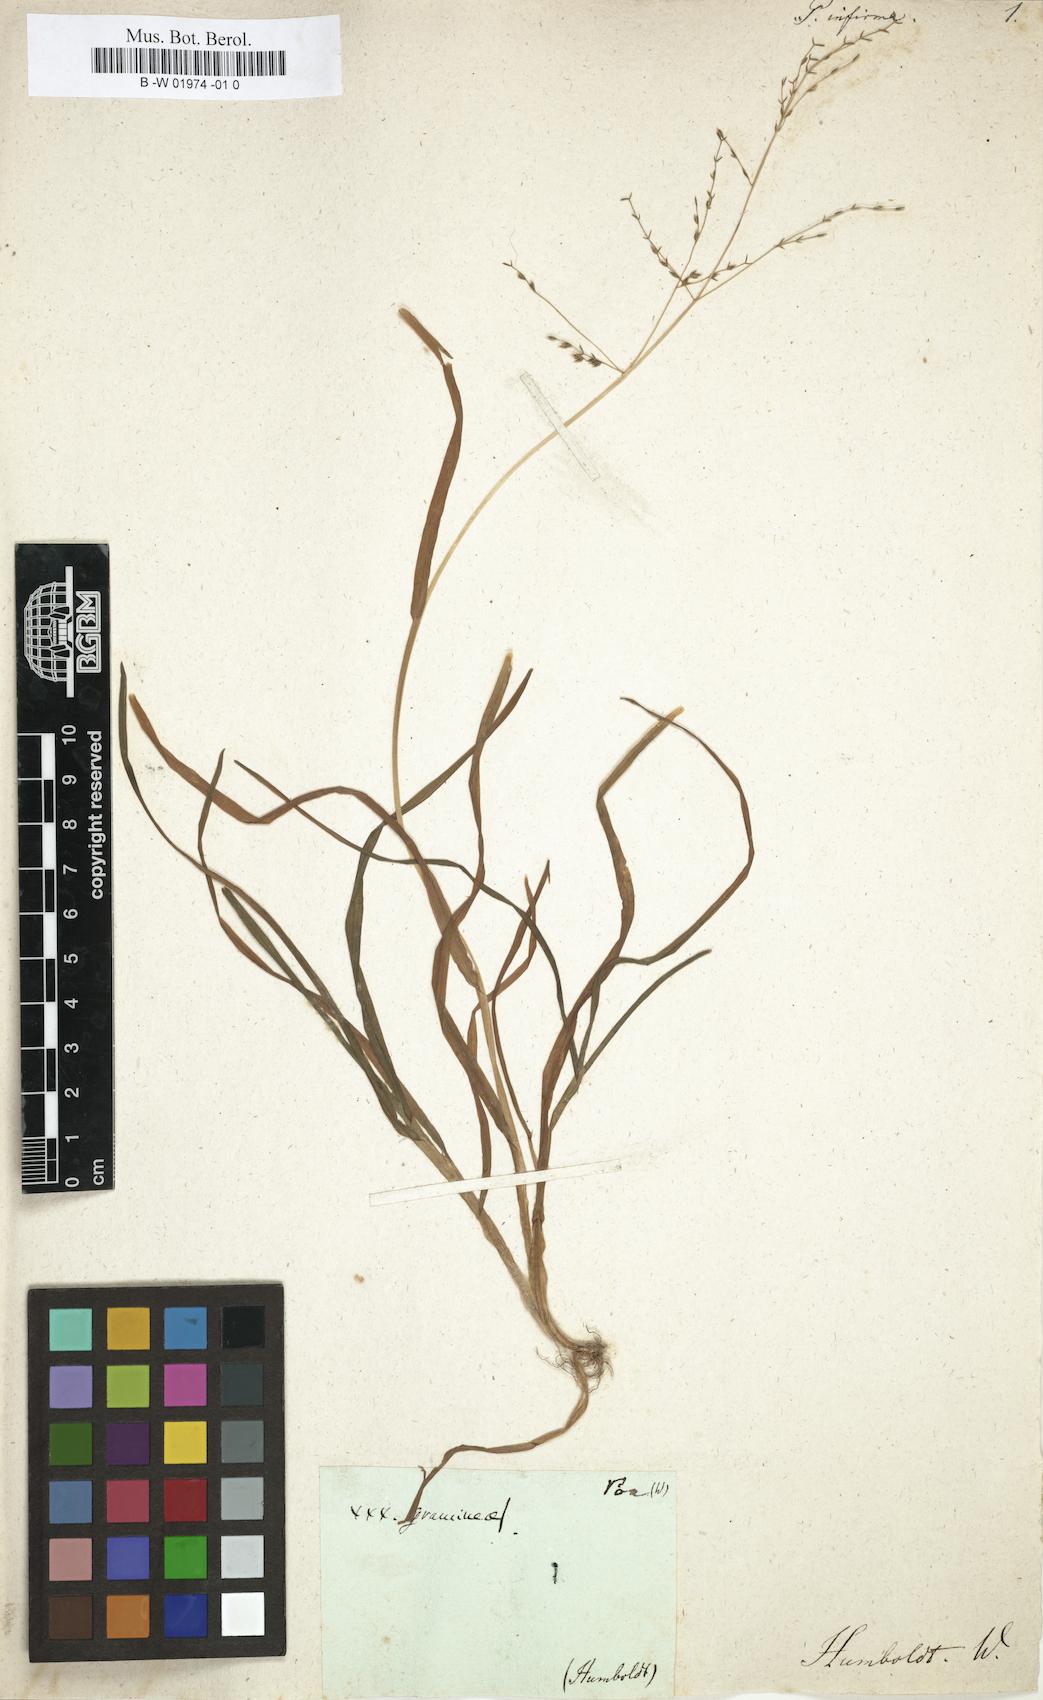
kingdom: Plantae
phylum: Tracheophyta
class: Liliopsida
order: Poales
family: Poaceae
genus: Poa
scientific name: Poa infirma
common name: Weak bluegrass
